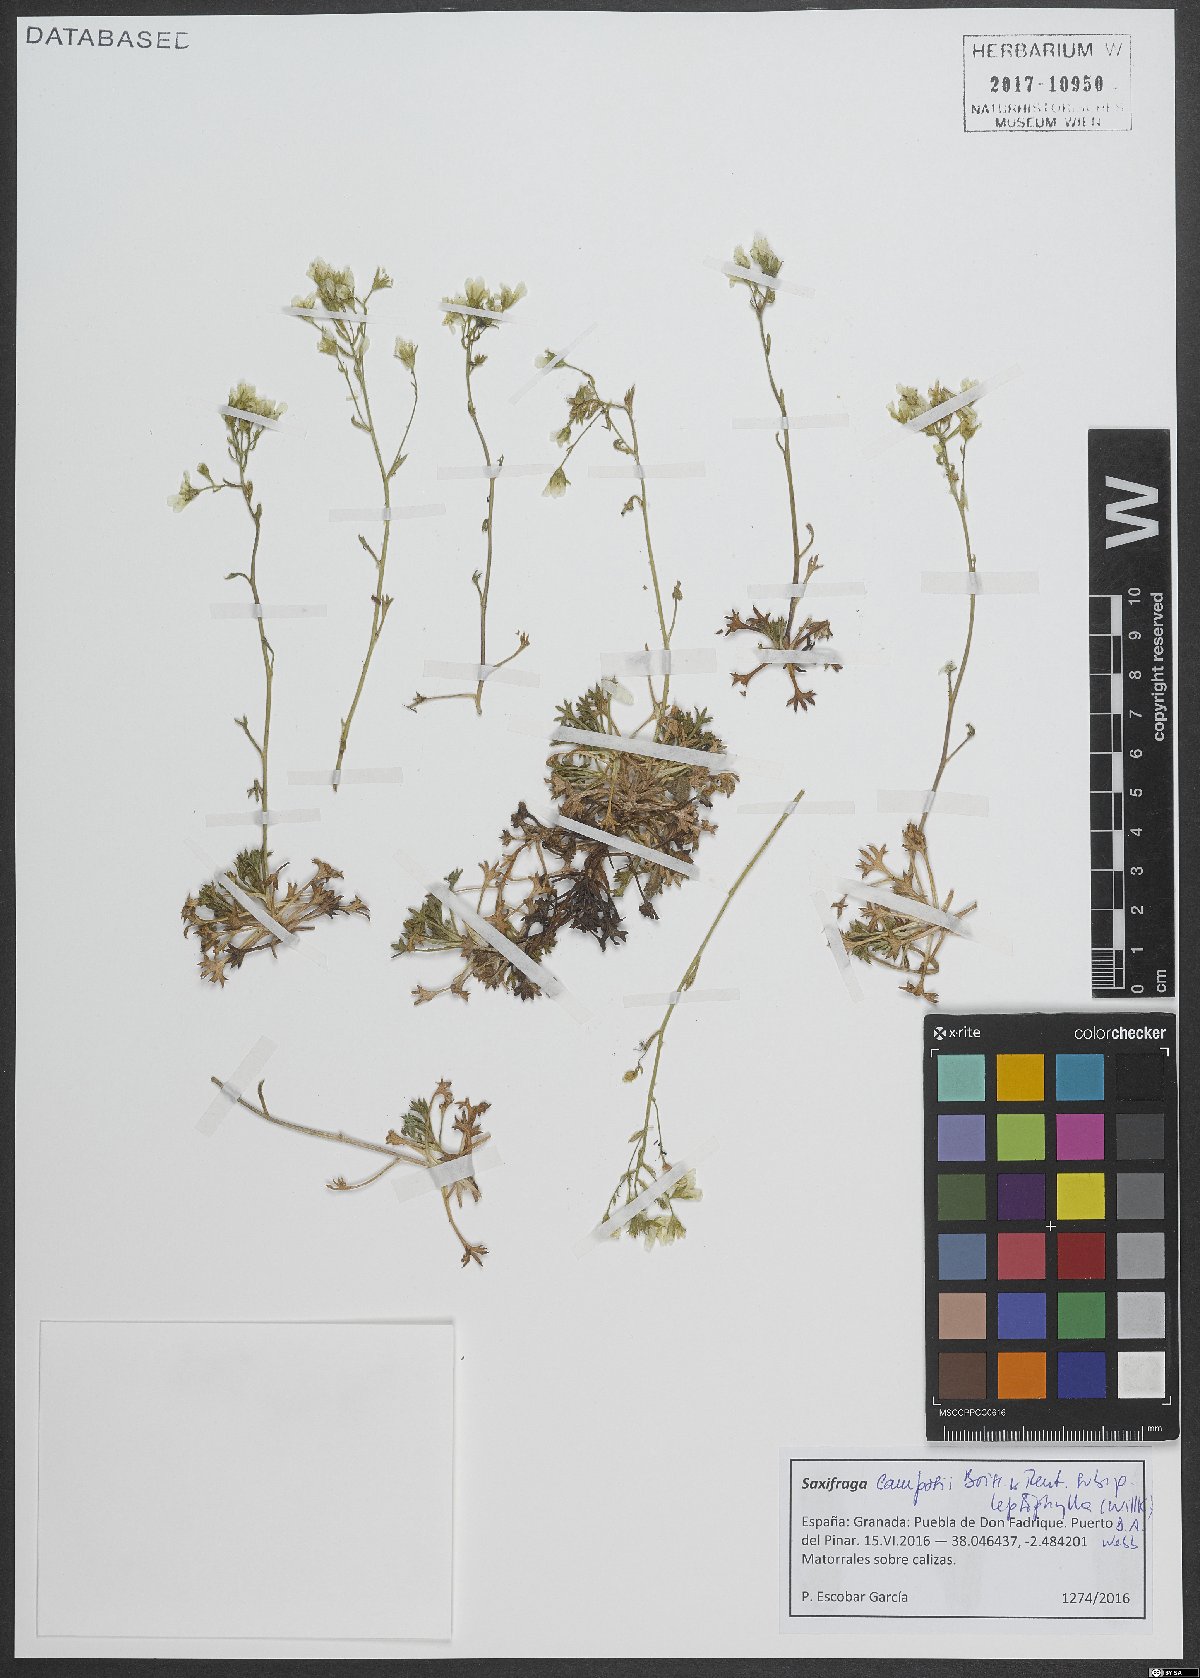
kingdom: Plantae
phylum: Tracheophyta
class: Magnoliopsida
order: Saxifragales
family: Saxifragaceae
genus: Saxifraga
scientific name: Saxifraga almeriensis
